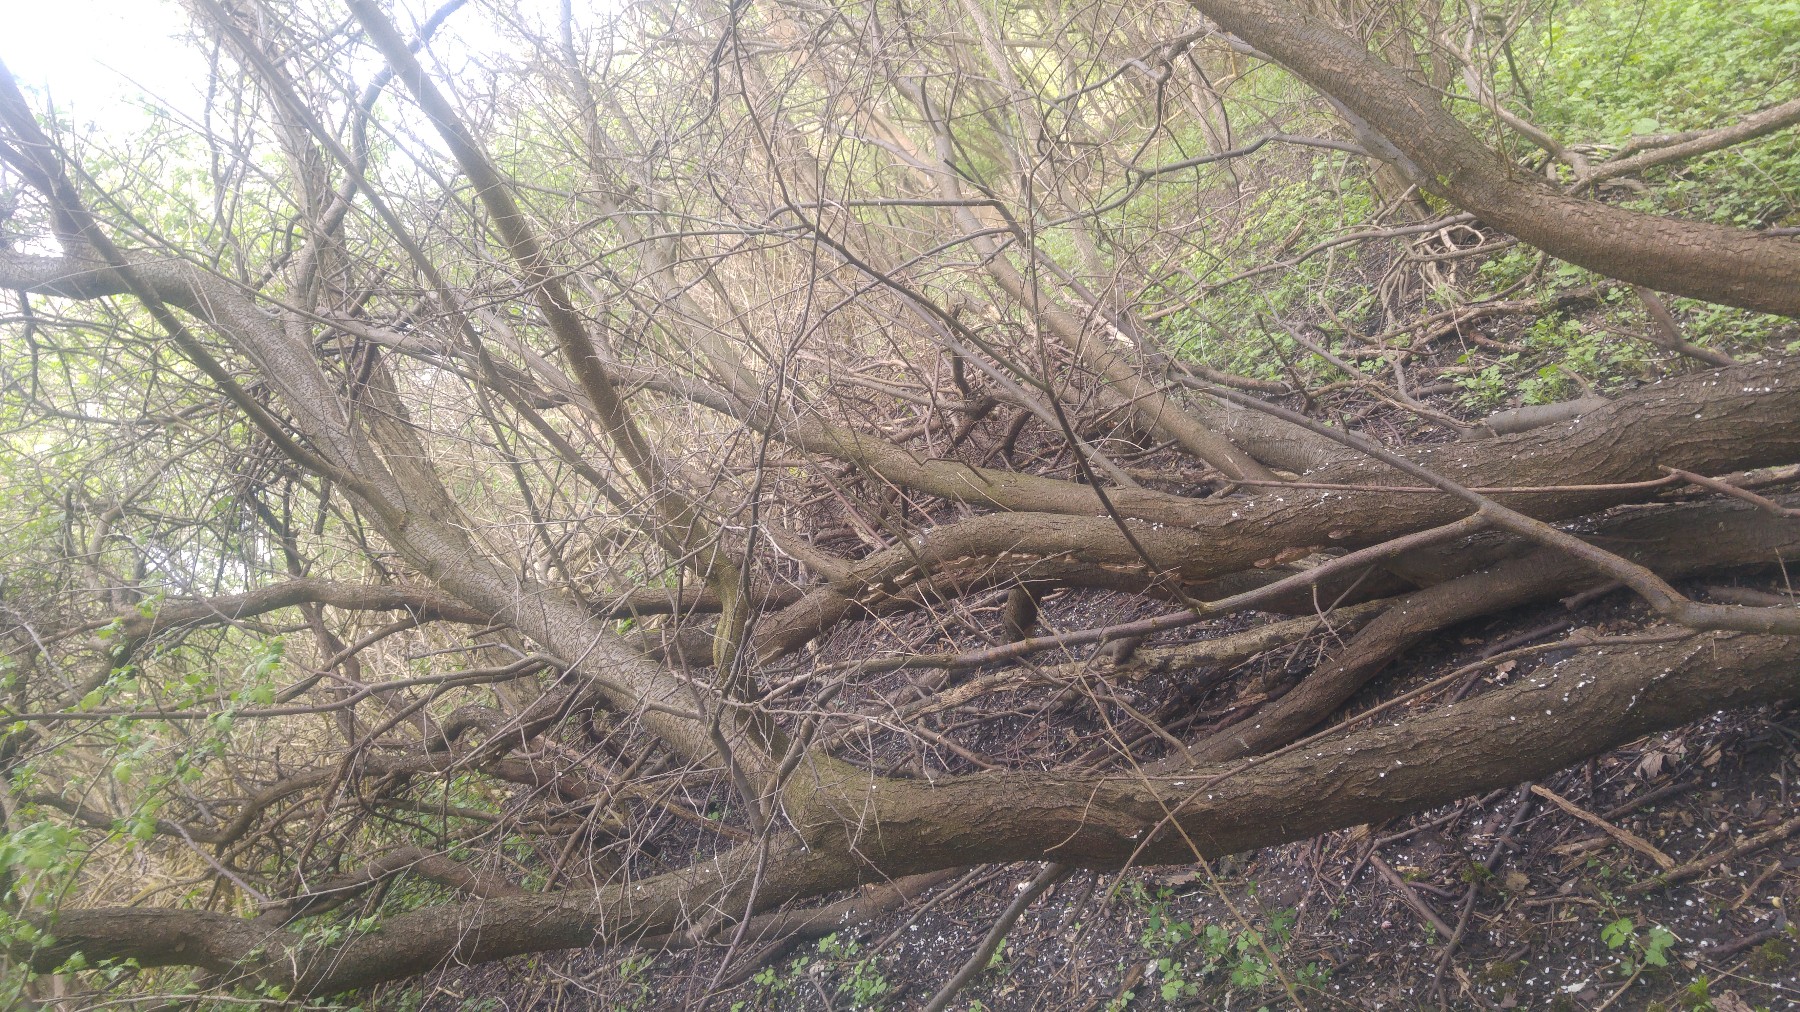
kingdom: Fungi
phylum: Basidiomycota
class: Agaricomycetes
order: Hymenochaetales
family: Hymenochaetaceae
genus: Phellinus
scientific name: Phellinus pomaceus
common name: blomme-ildporesvamp
